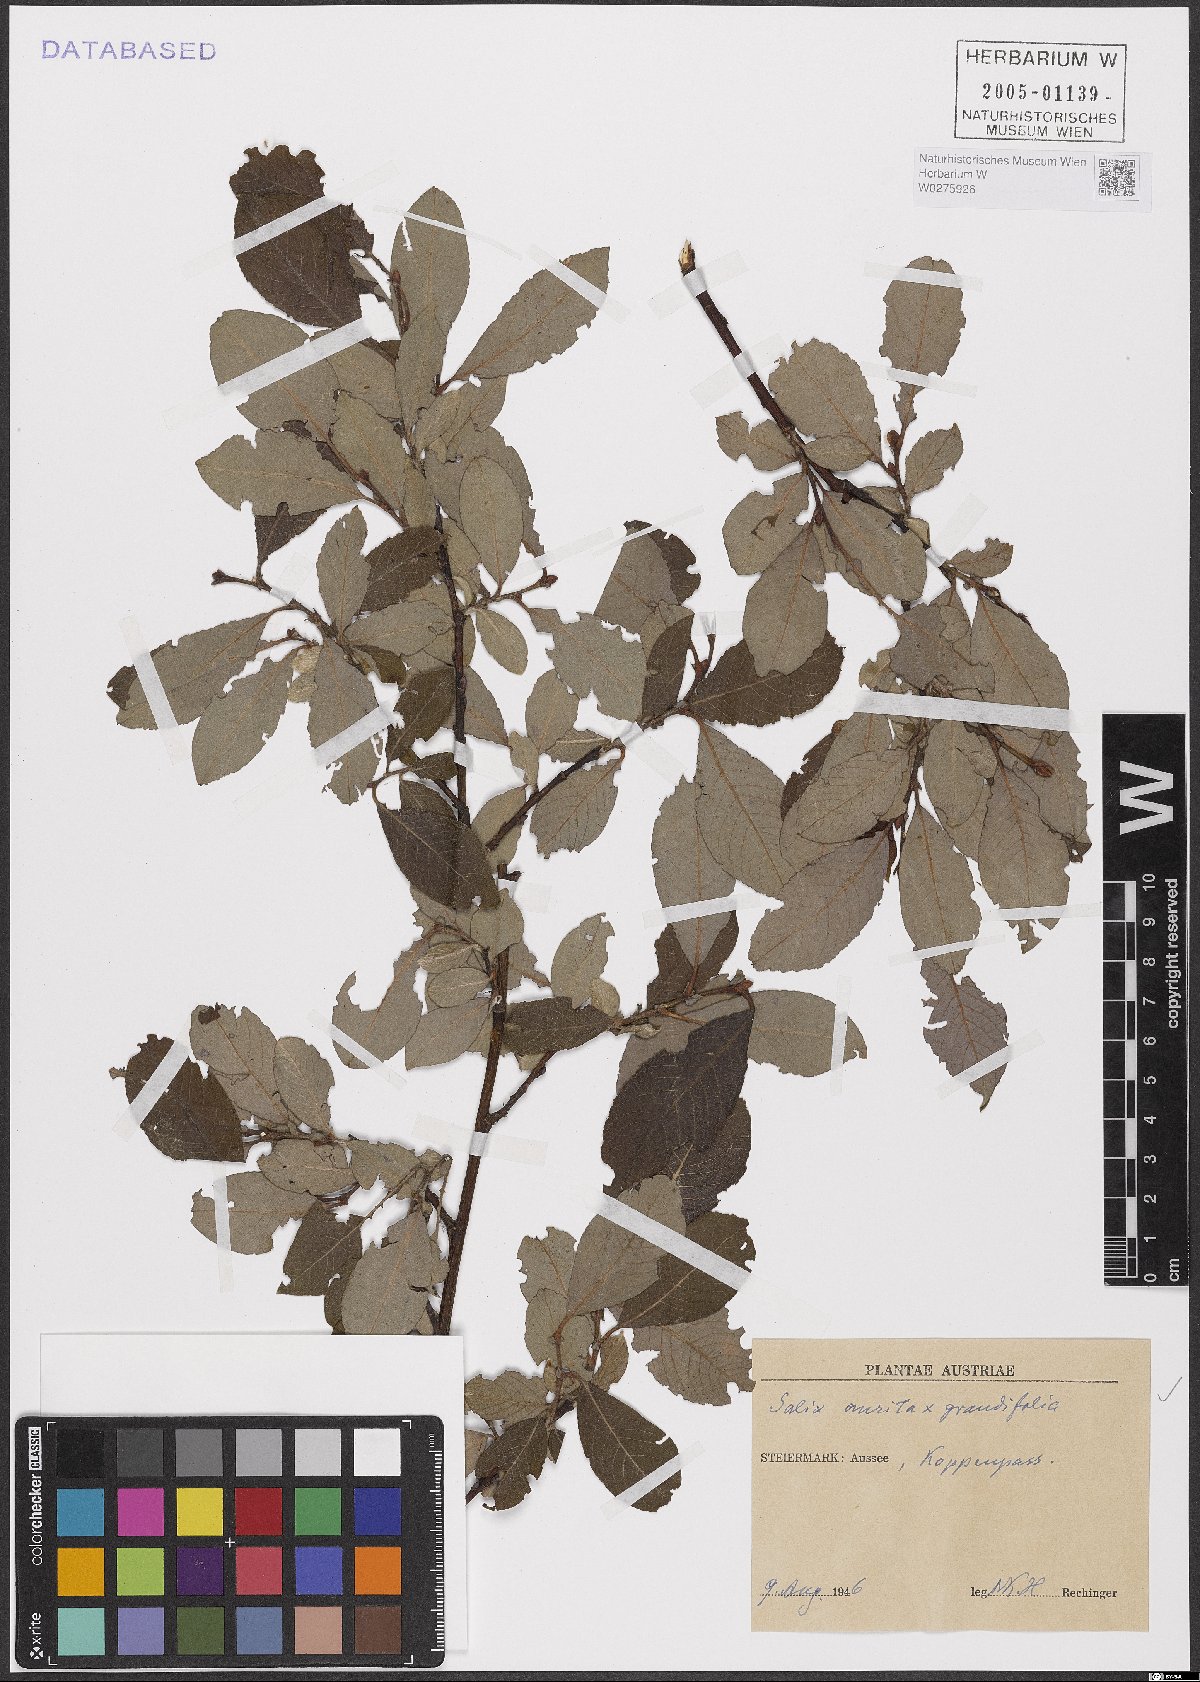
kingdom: Plantae
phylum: Tracheophyta
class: Magnoliopsida
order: Malpighiales
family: Salicaceae
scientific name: Salicaceae
